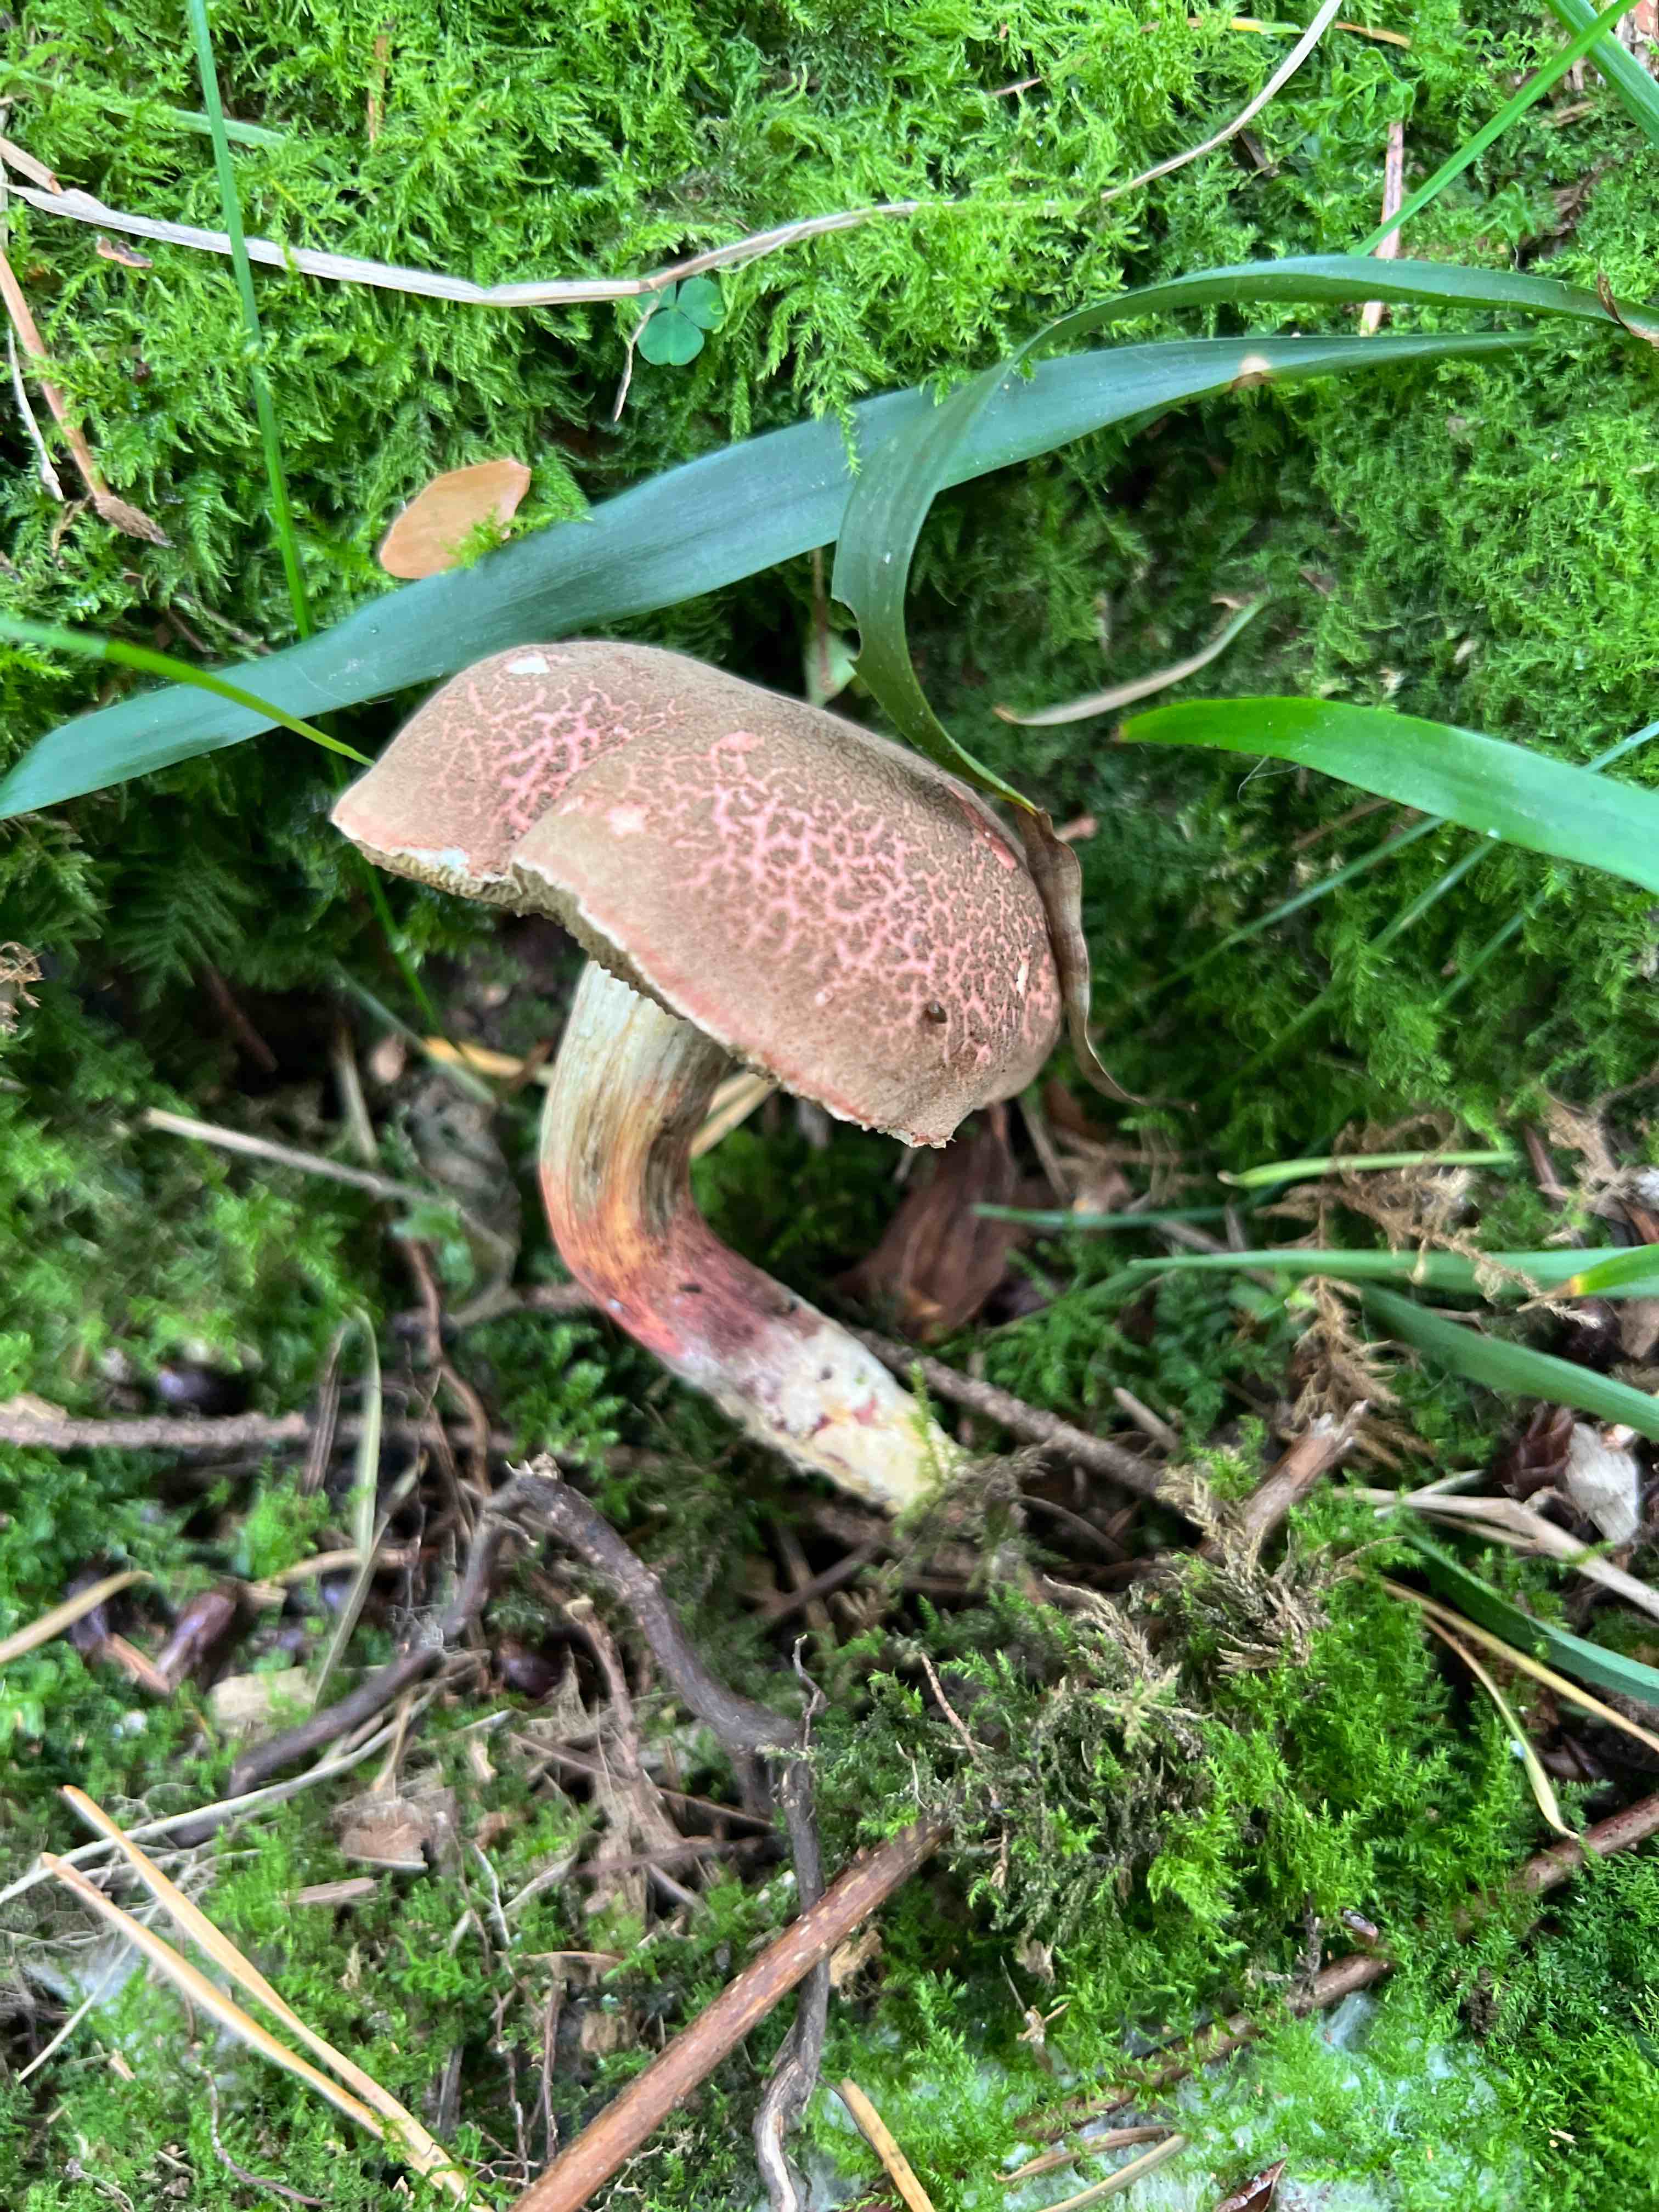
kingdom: Fungi
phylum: Basidiomycota
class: Agaricomycetes
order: Boletales
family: Boletaceae
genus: Xerocomellus
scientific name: Xerocomellus chrysenteron
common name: rødsprukken rørhat
